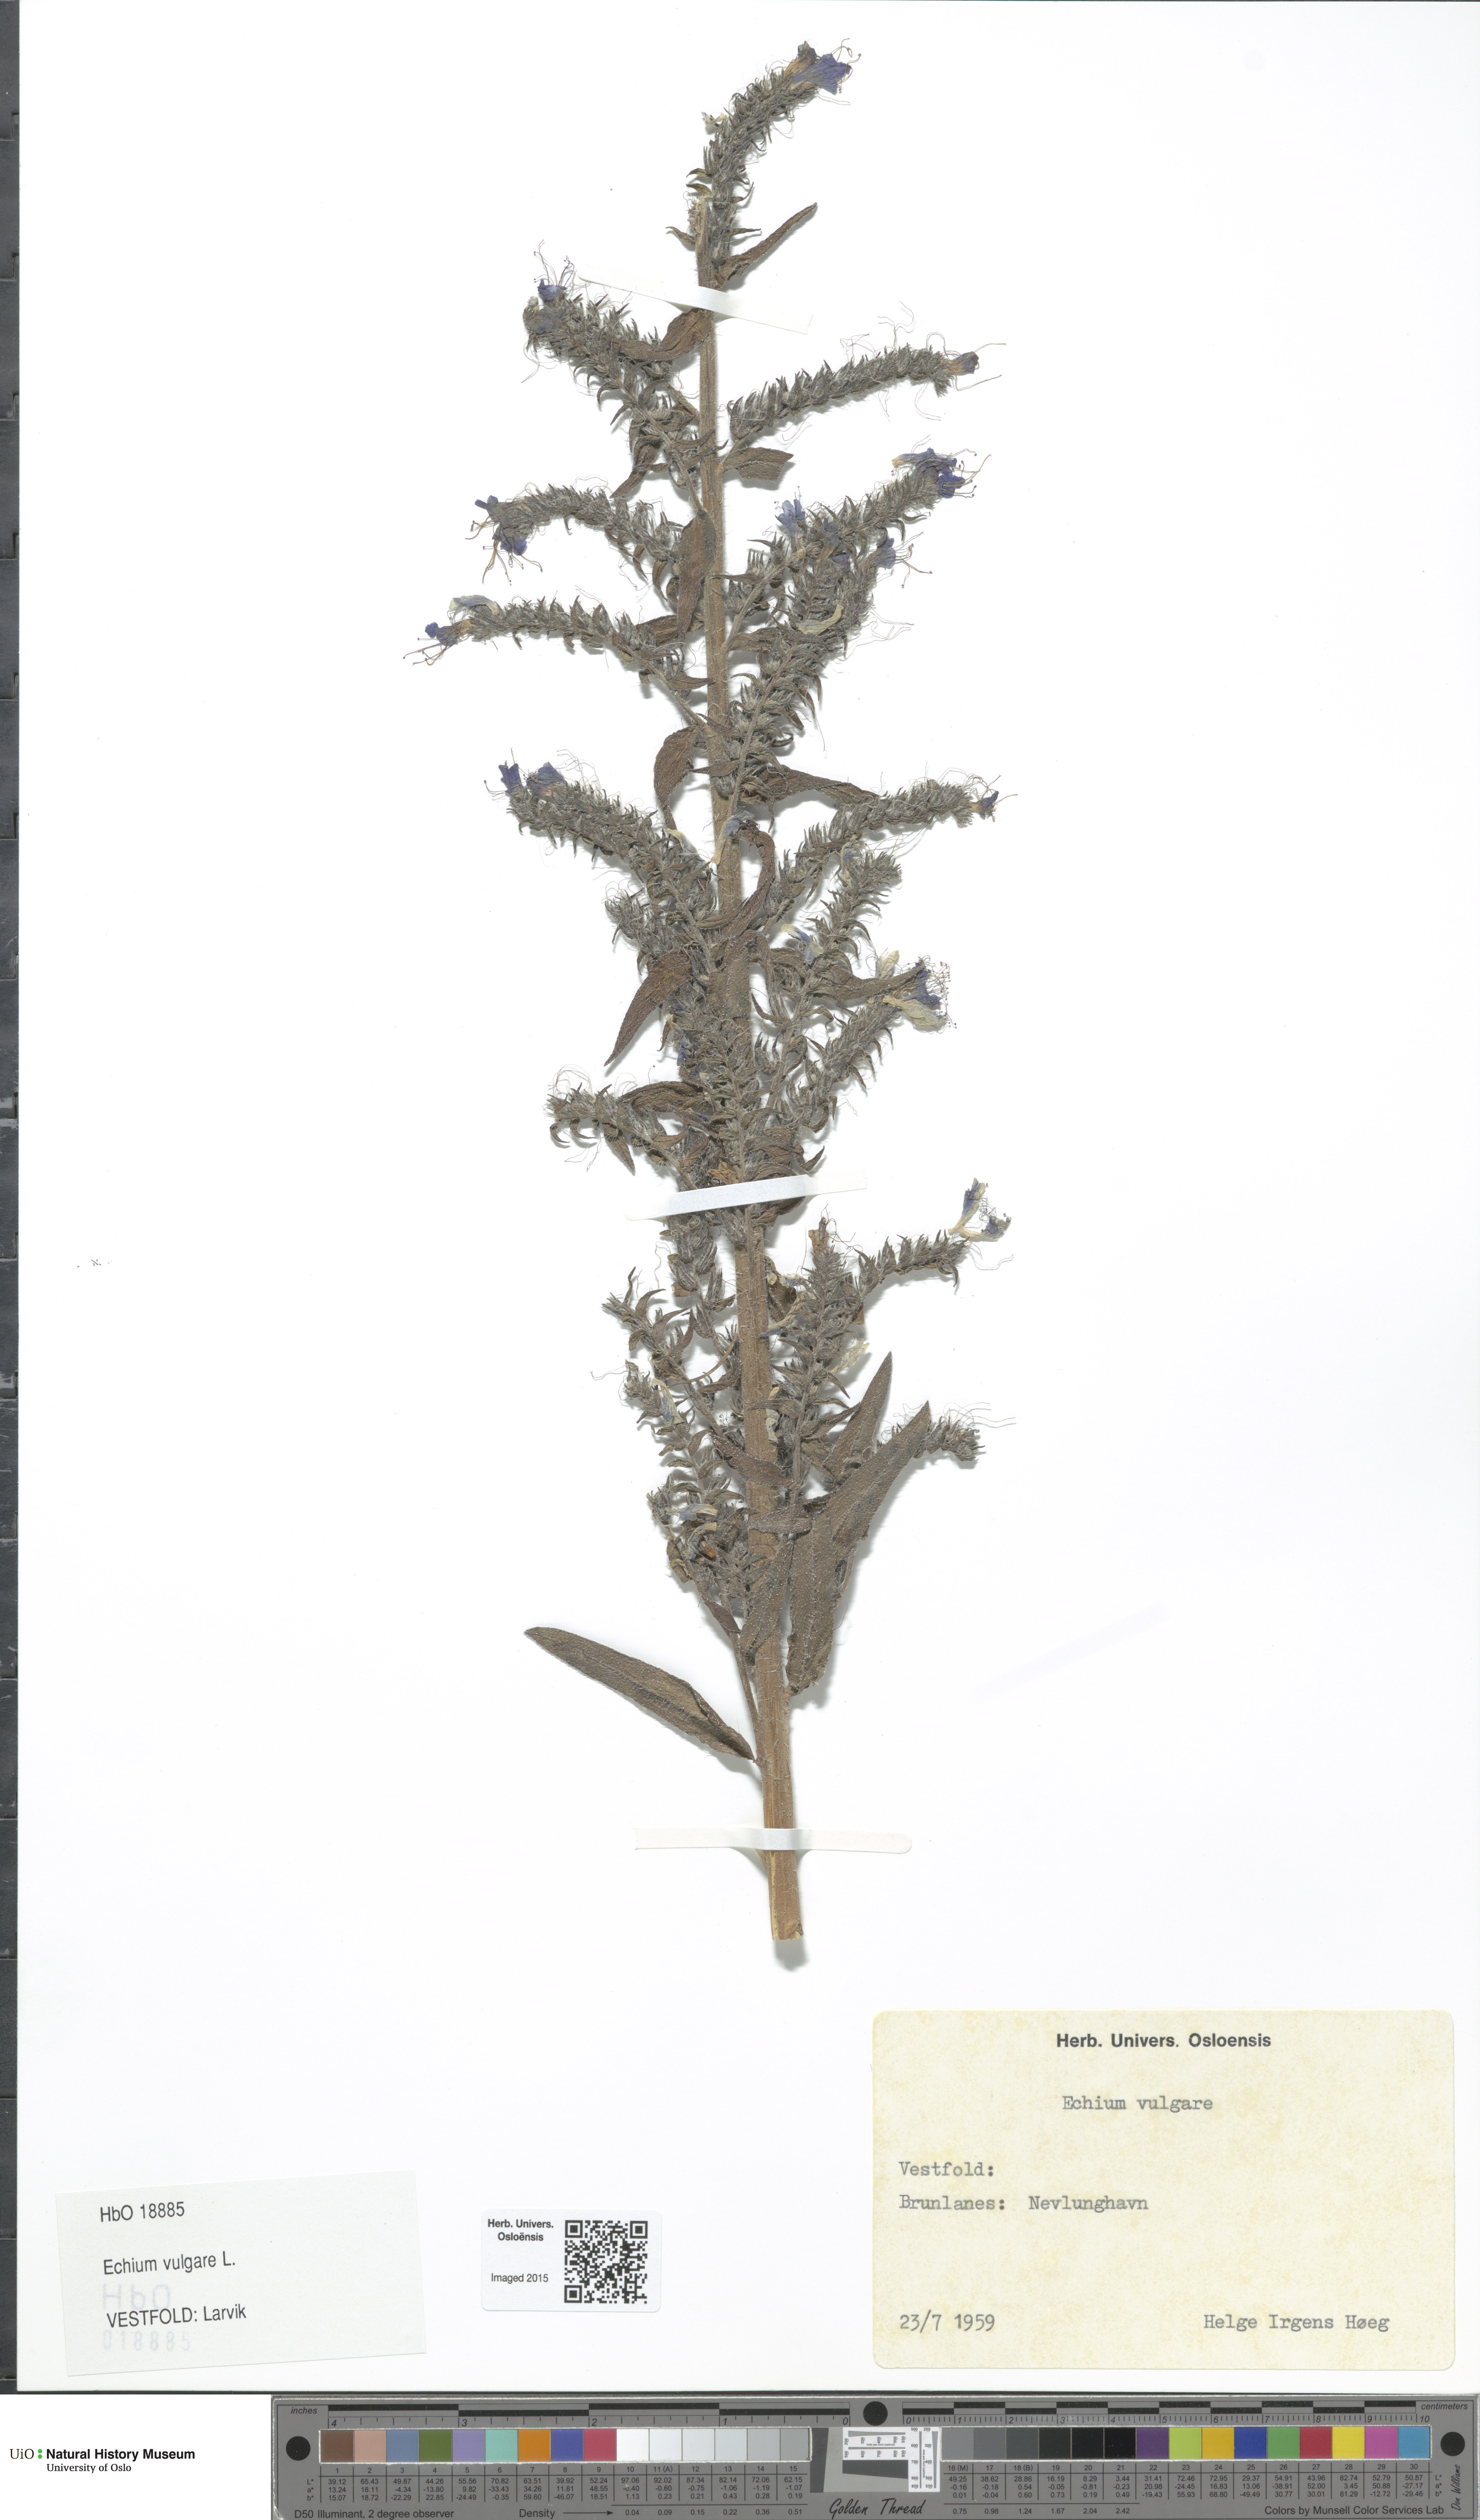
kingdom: Plantae
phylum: Tracheophyta
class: Magnoliopsida
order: Boraginales
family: Boraginaceae
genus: Echium
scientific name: Echium vulgare
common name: Common viper's bugloss
